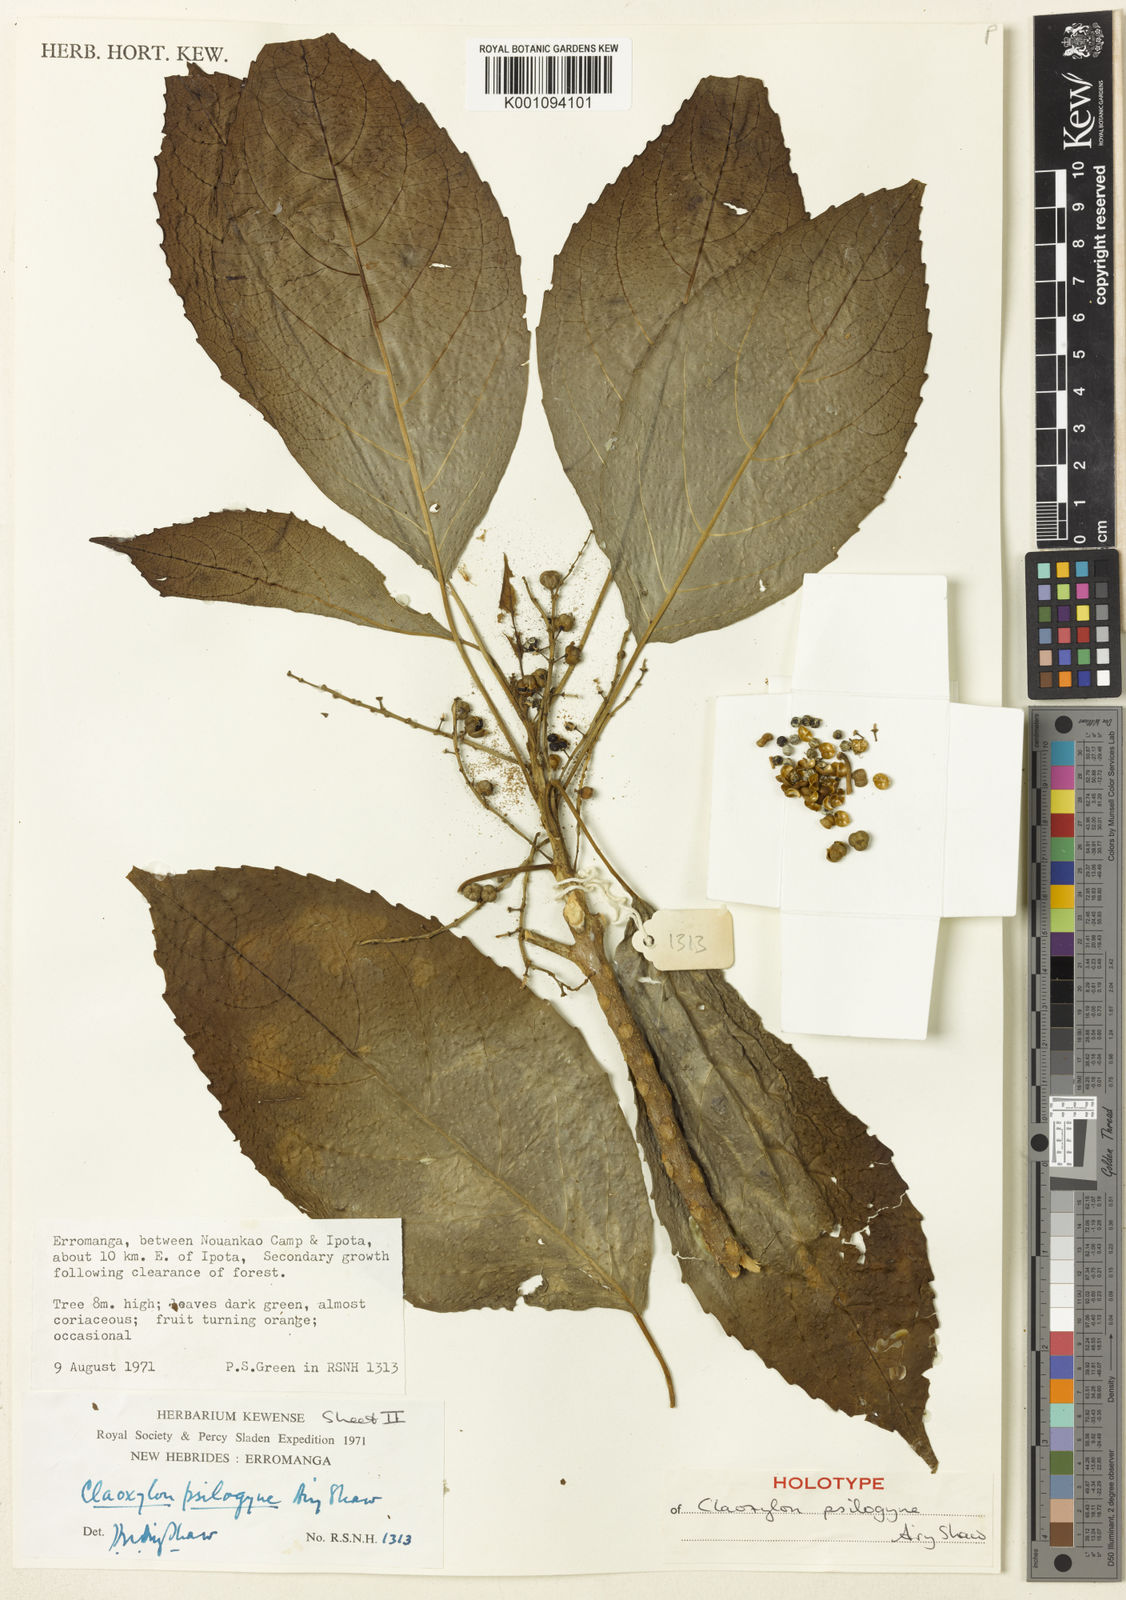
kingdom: Plantae
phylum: Tracheophyta
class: Magnoliopsida
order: Malpighiales
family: Euphorbiaceae
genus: Claoxylon
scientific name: Claoxylon psilogyne
